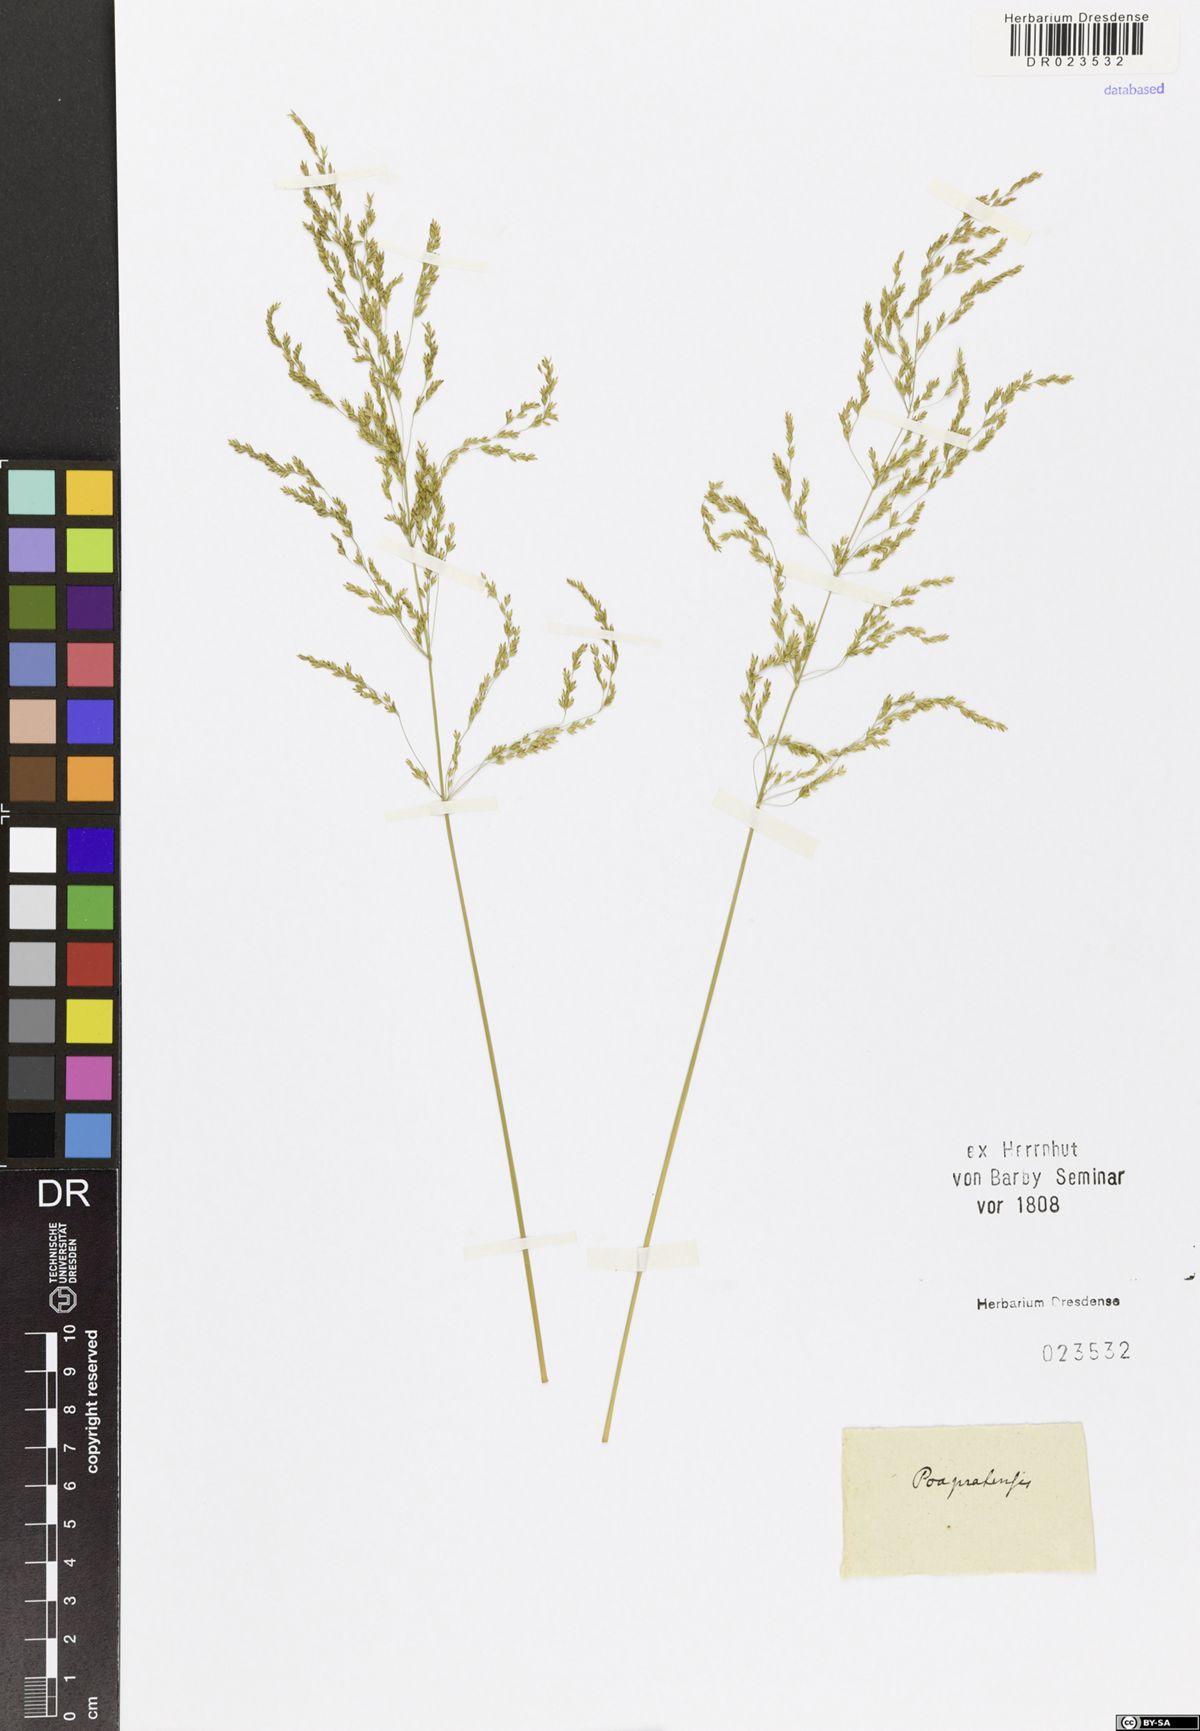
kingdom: Plantae
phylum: Tracheophyta
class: Liliopsida
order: Poales
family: Poaceae
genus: Poa
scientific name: Poa pratensis
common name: Kentucky bluegrass
